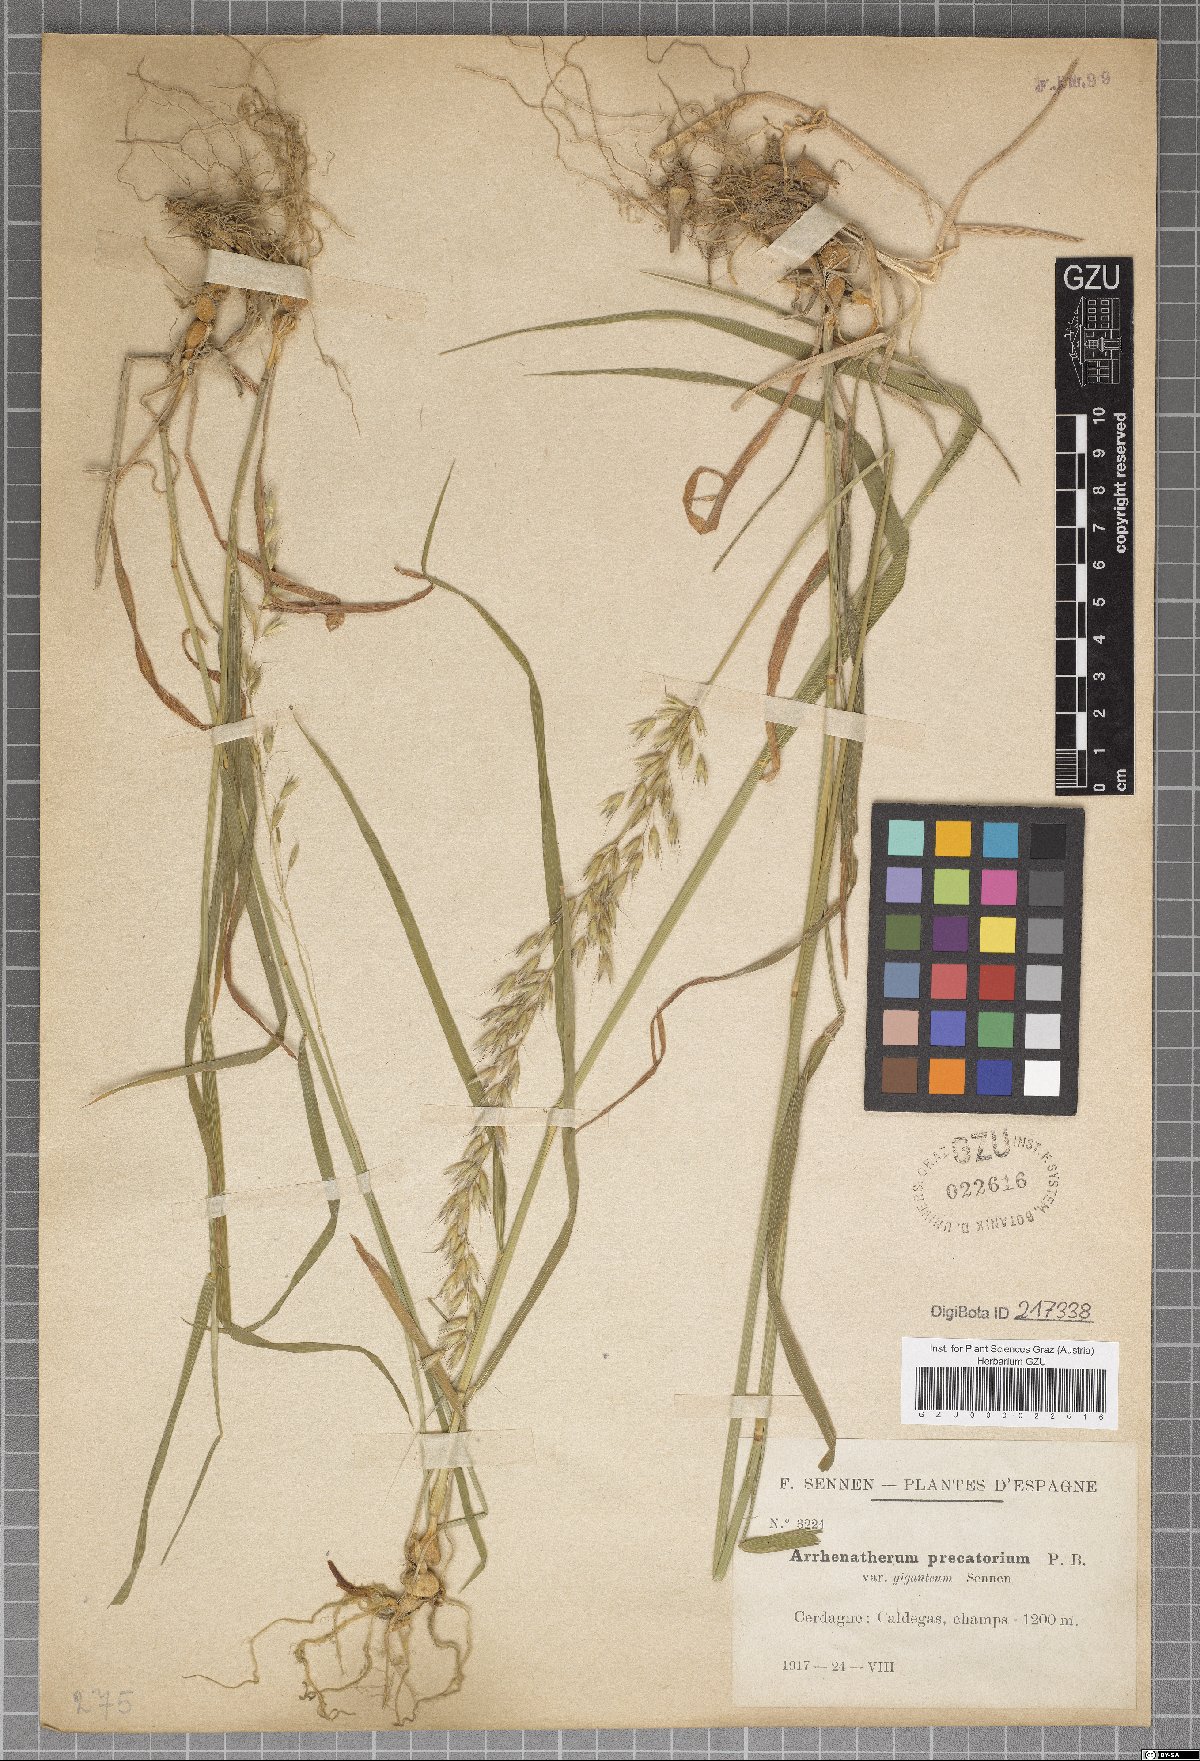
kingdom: Plantae
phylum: Tracheophyta
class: Liliopsida
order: Poales
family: Poaceae
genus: Arrhenatherum
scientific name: Arrhenatherum elatius
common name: Tall oatgrass
